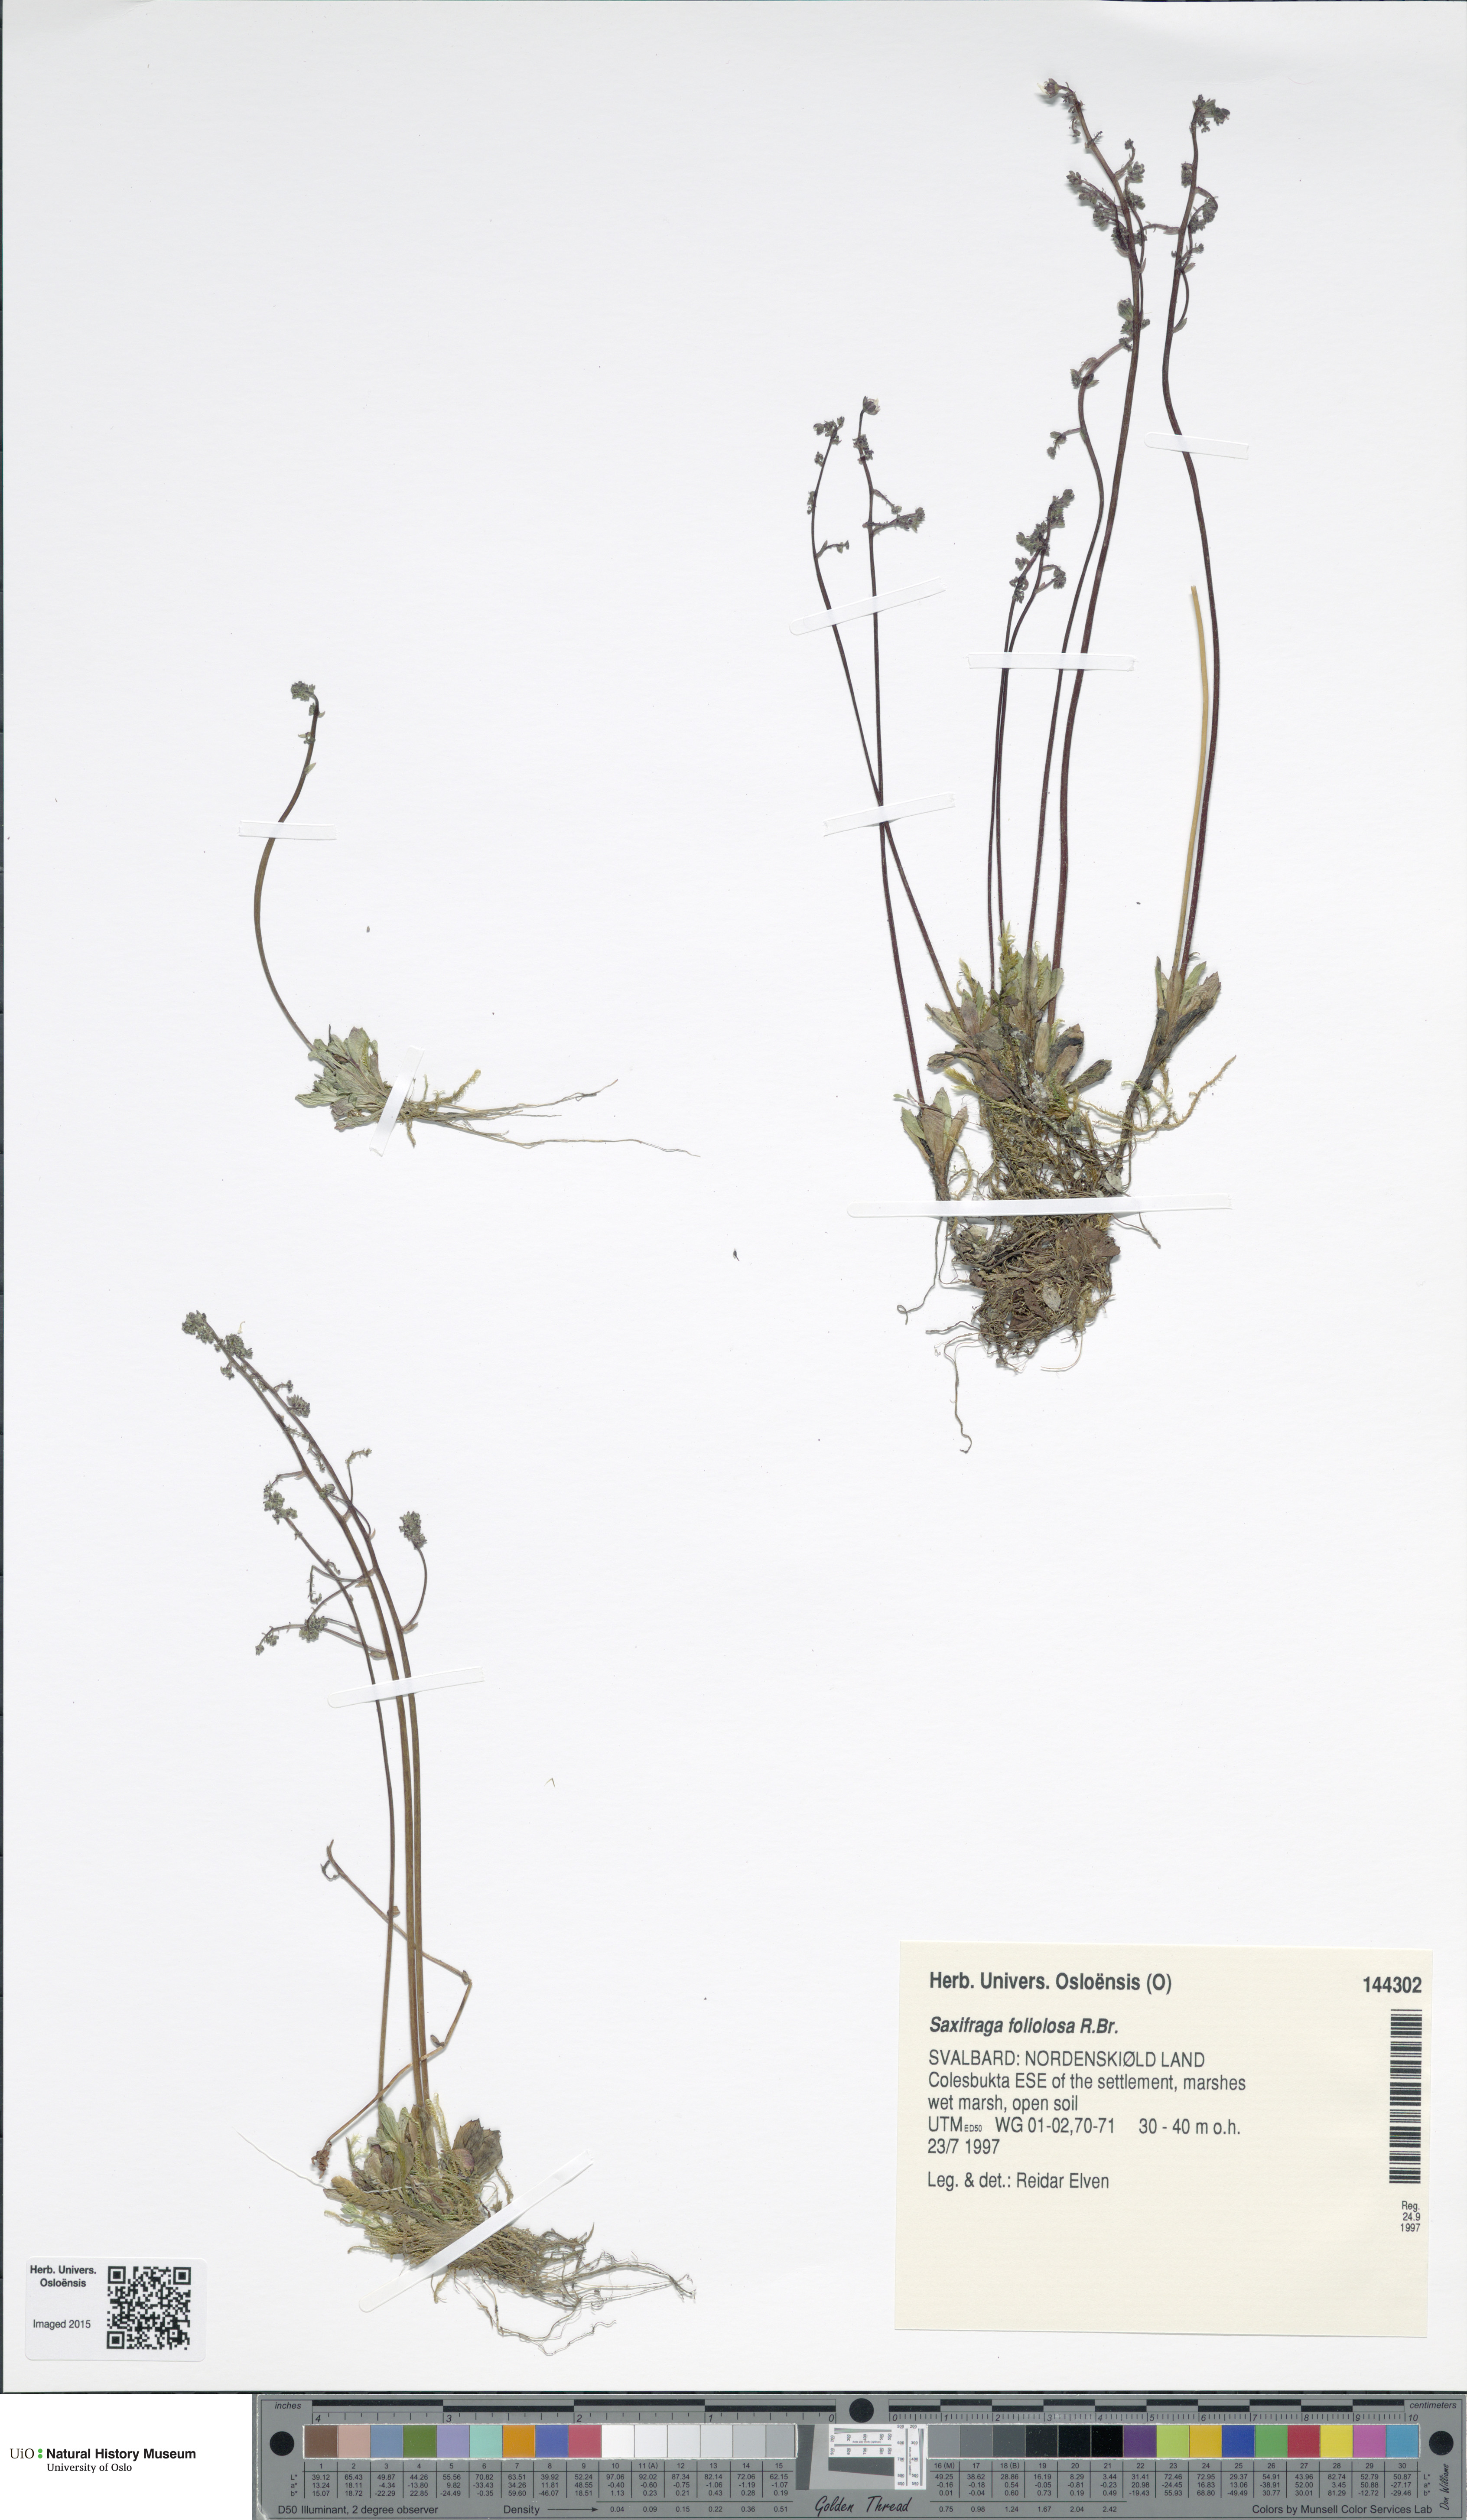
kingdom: Plantae
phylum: Tracheophyta
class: Magnoliopsida
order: Saxifragales
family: Saxifragaceae
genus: Micranthes
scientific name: Micranthes foliolosa
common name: Leafystem saxifrage
